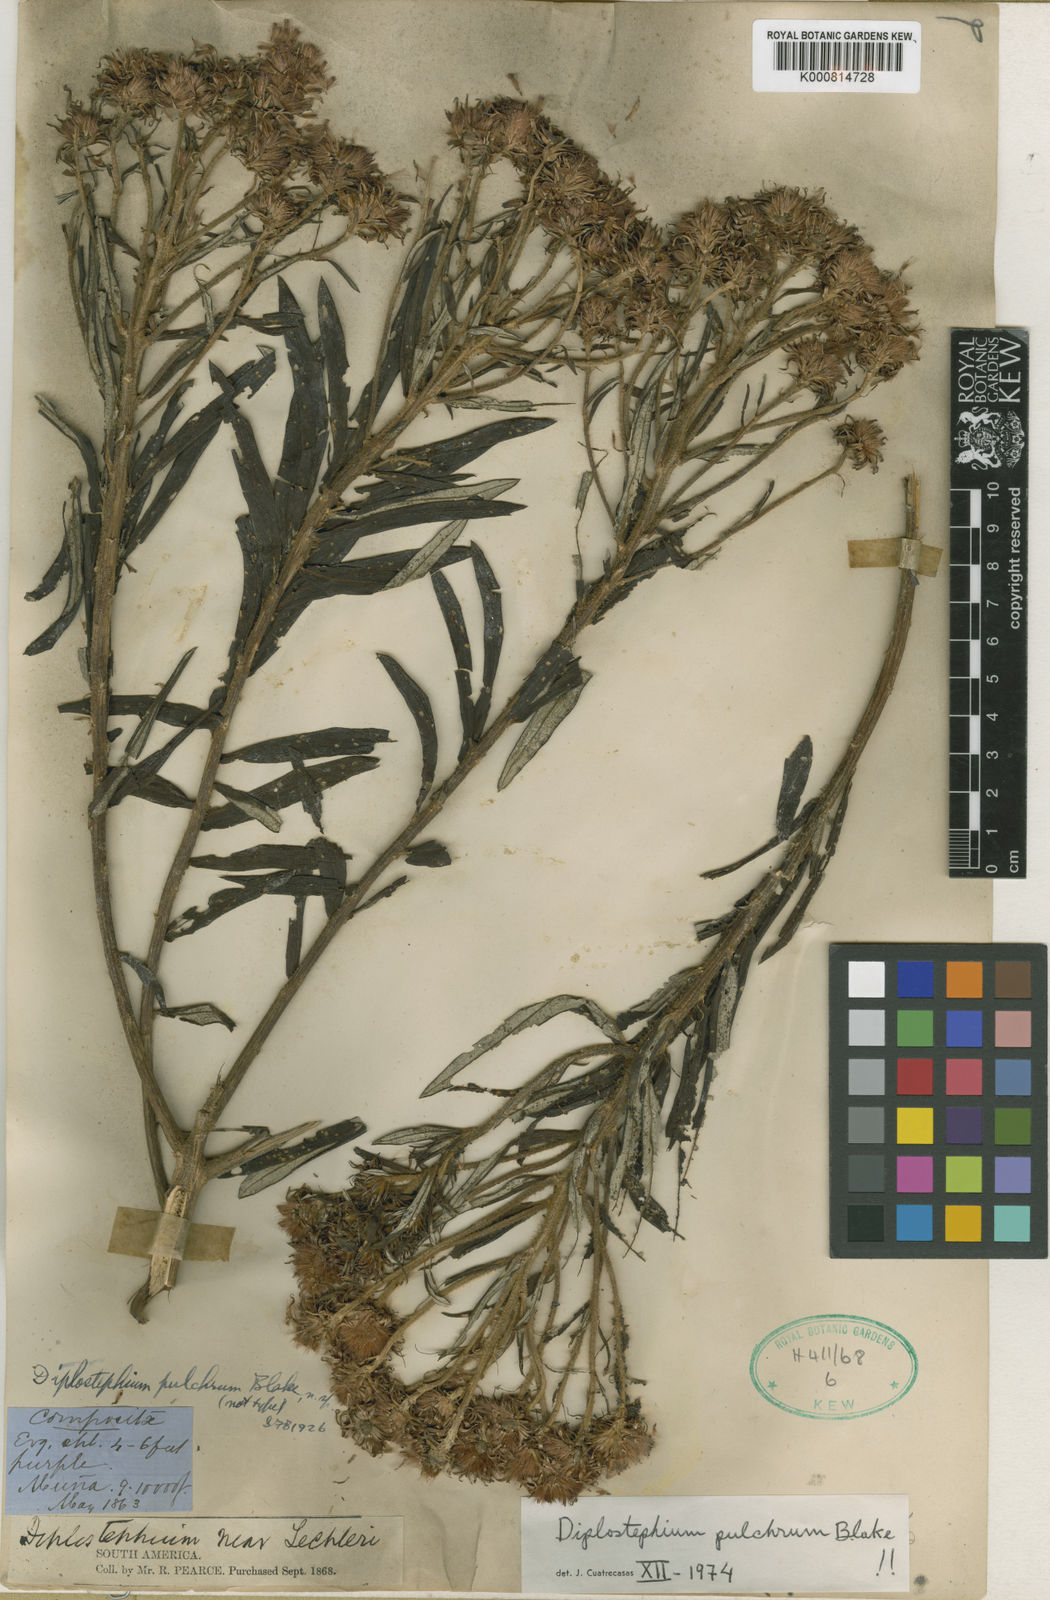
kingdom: Plantae
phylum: Tracheophyta
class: Magnoliopsida
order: Asterales
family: Asteraceae
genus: Diplostephium
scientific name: Diplostephium pulchrum
